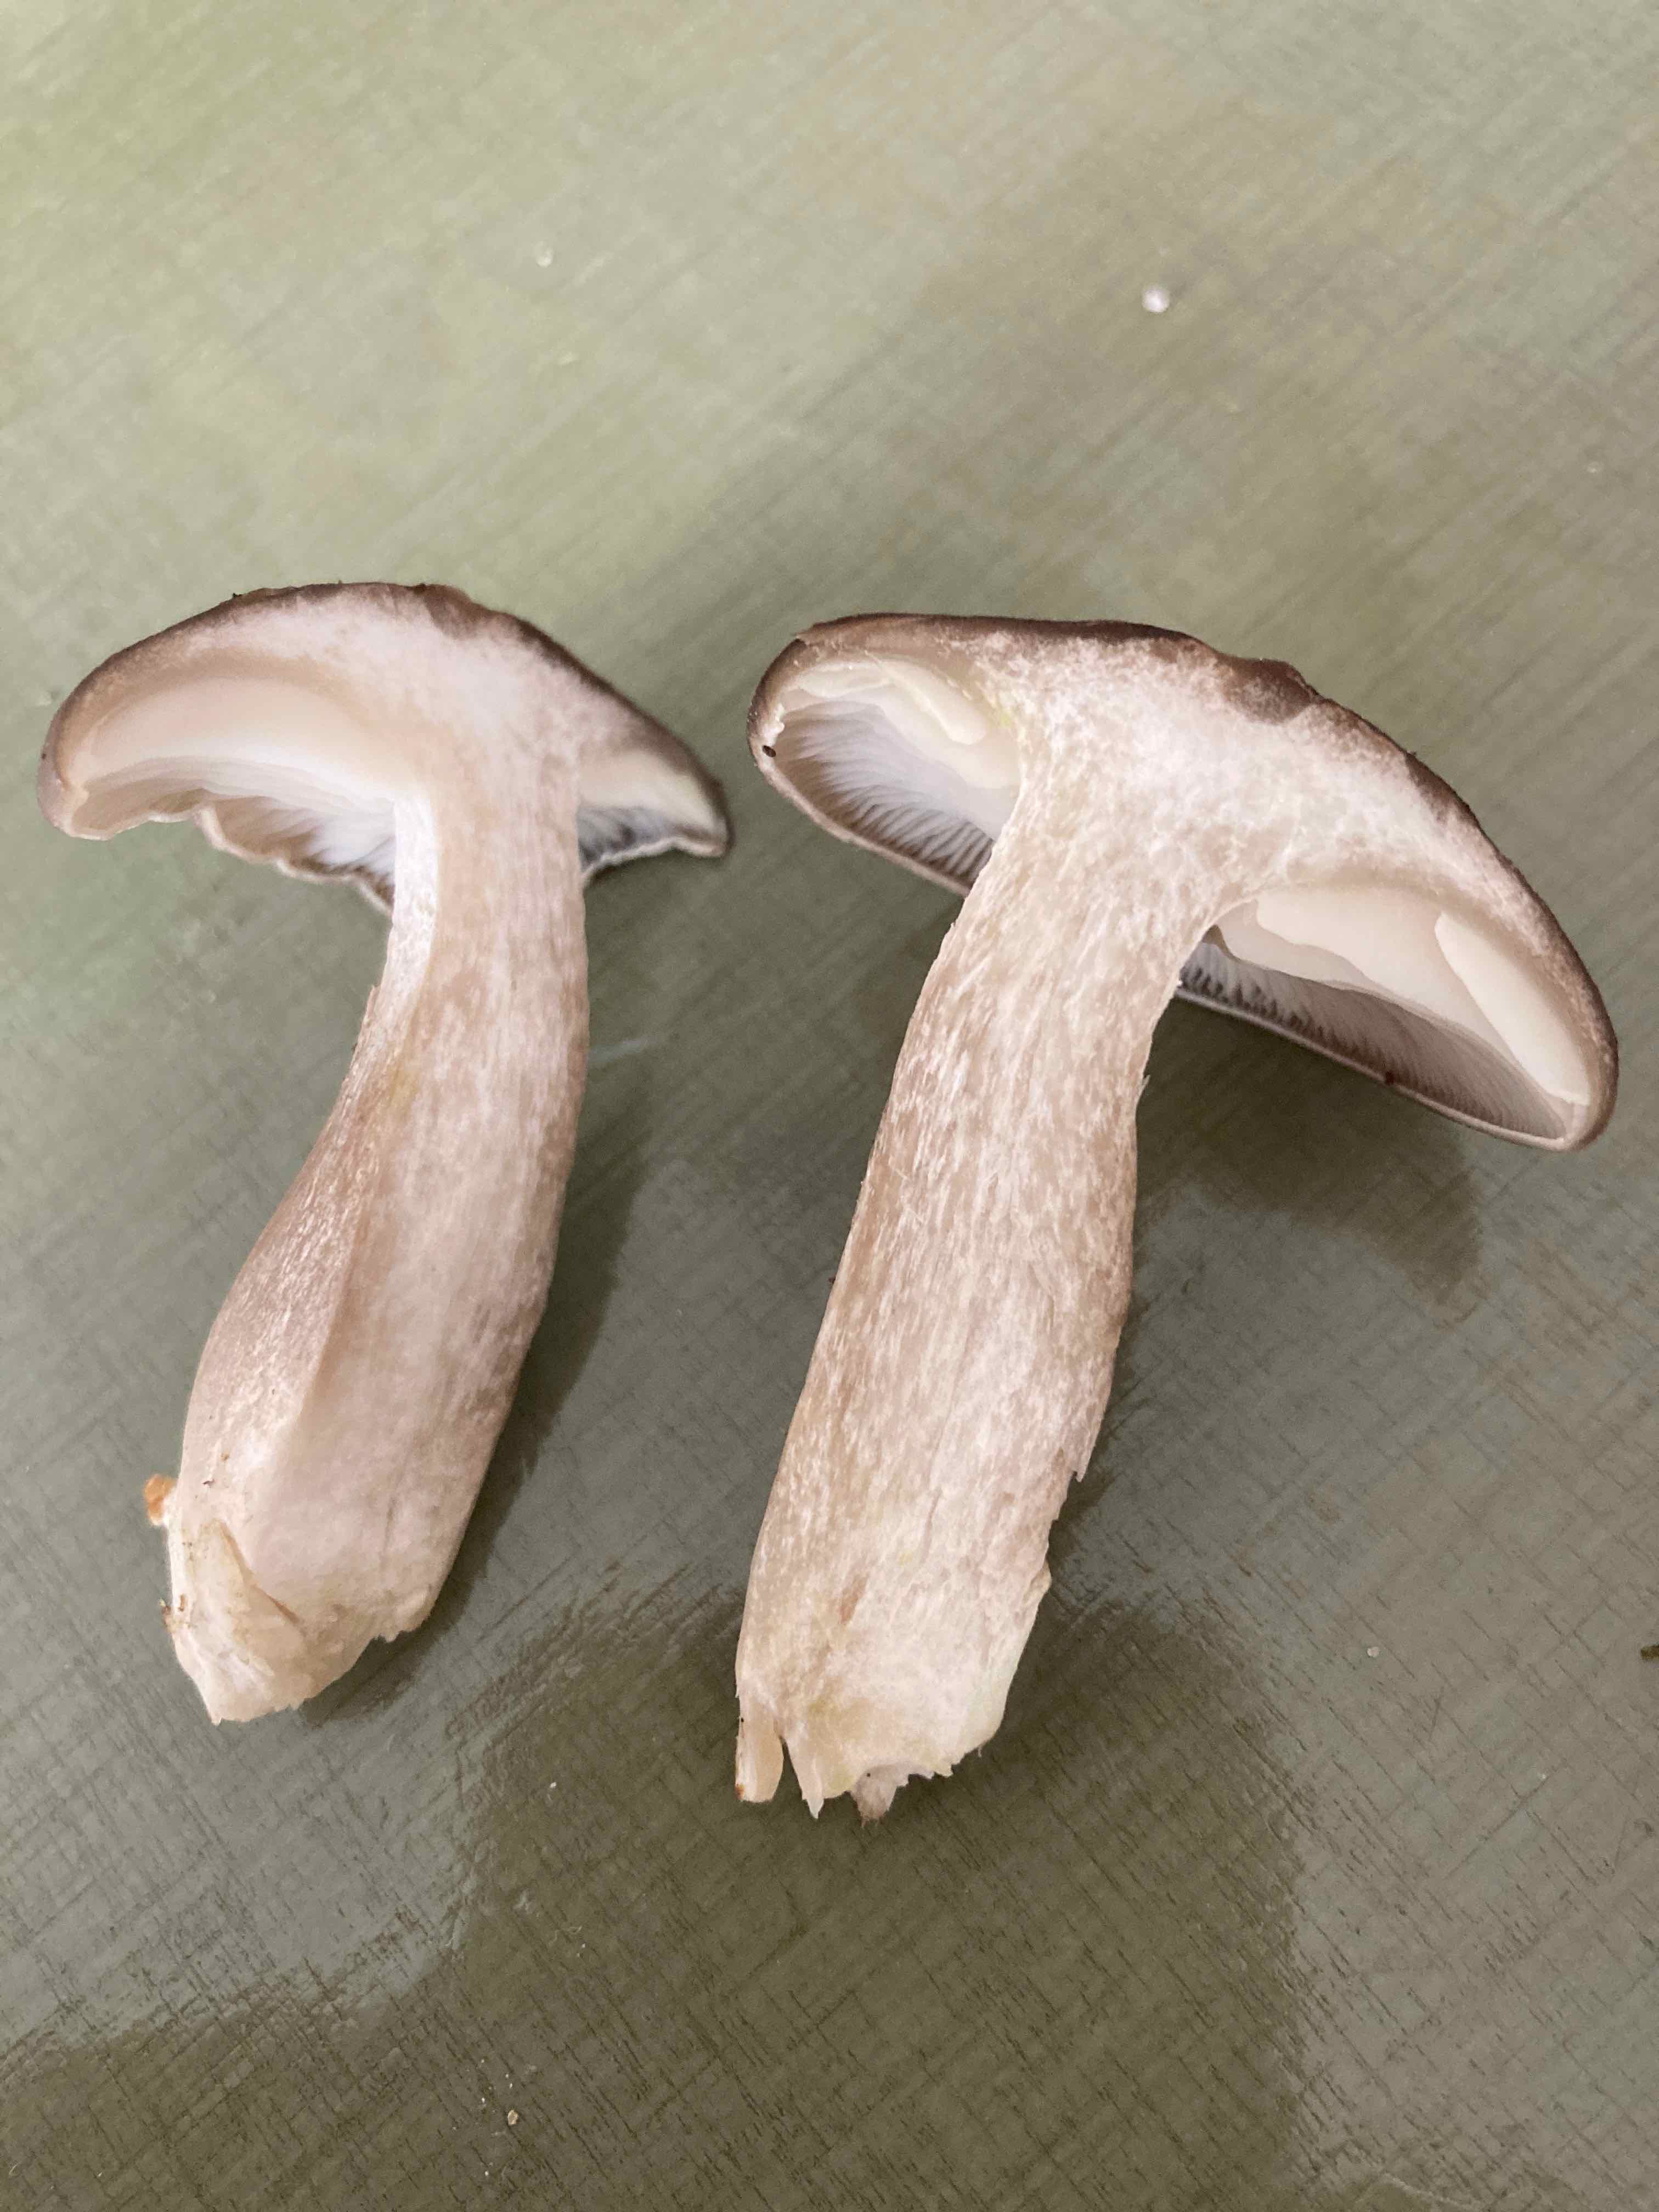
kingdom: Fungi
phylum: Basidiomycota
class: Agaricomycetes
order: Agaricales
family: Lyophyllaceae
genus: Lyophyllum
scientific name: Lyophyllum decastes
